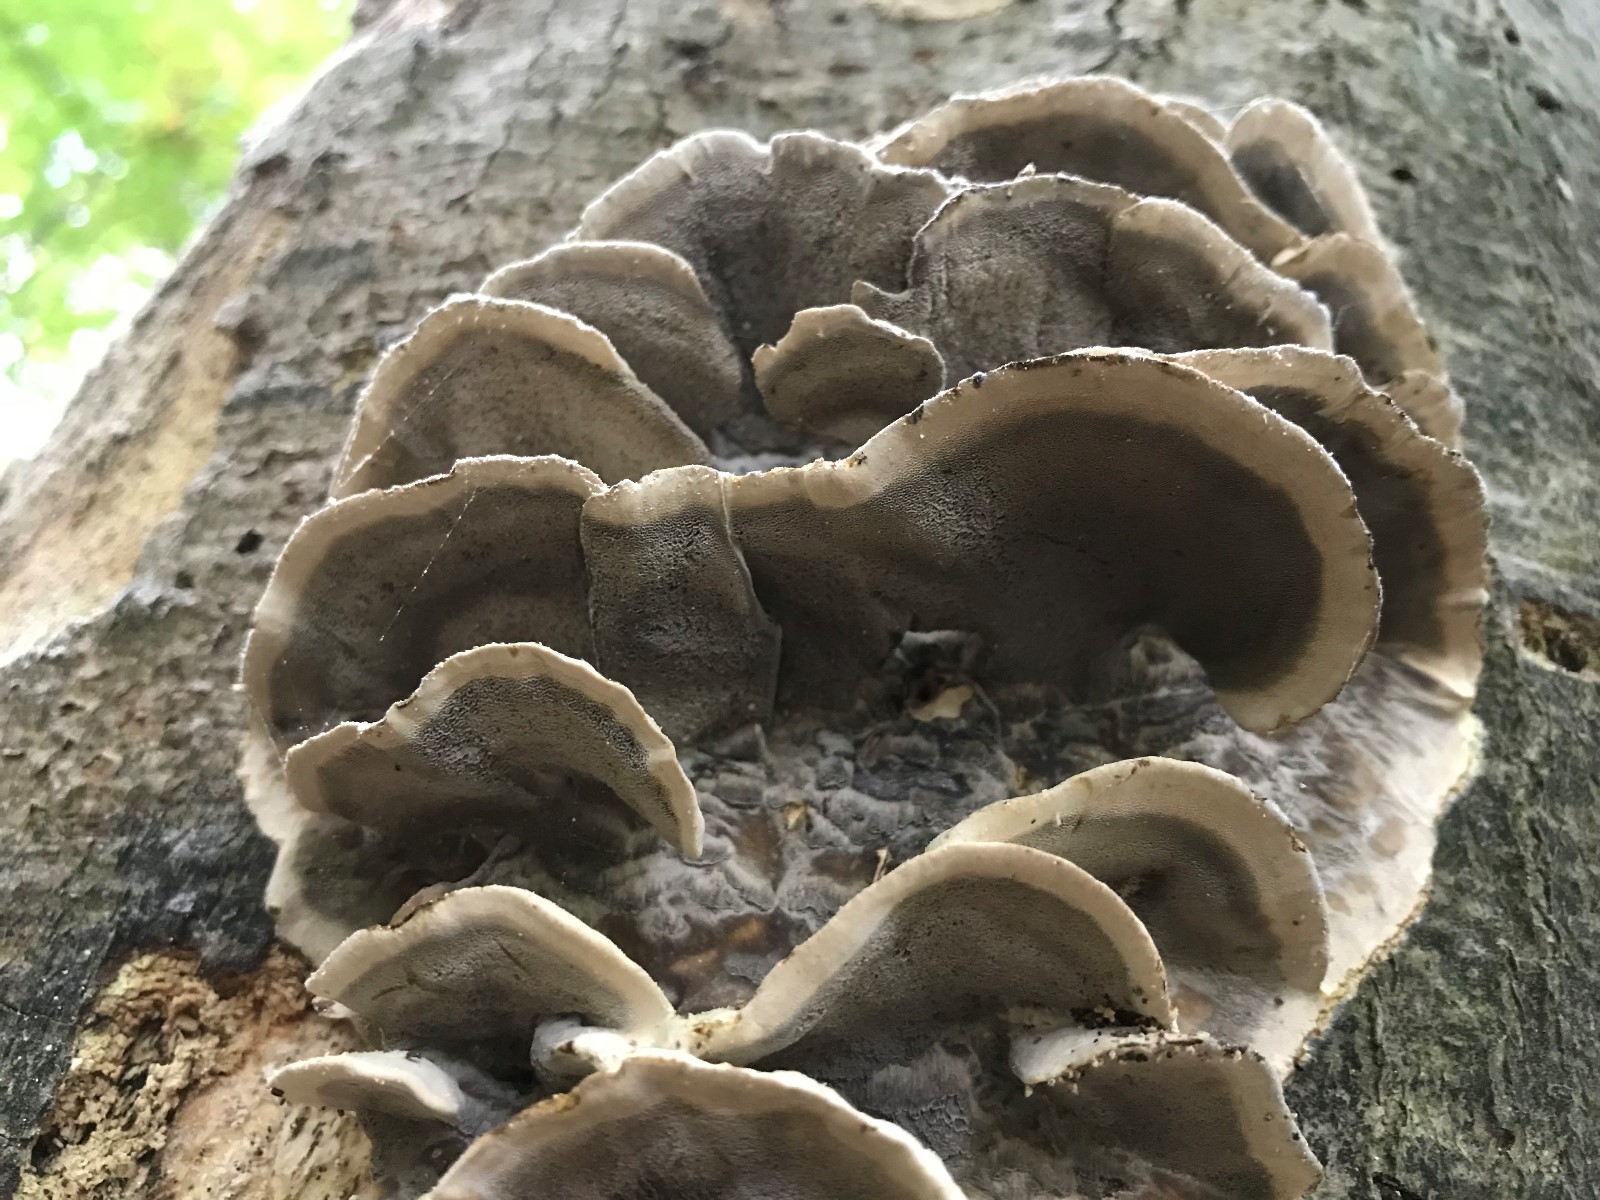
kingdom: Fungi
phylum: Basidiomycota
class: Agaricomycetes
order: Polyporales
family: Phanerochaetaceae
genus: Bjerkandera
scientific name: Bjerkandera adusta
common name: sveden sodporesvamp
